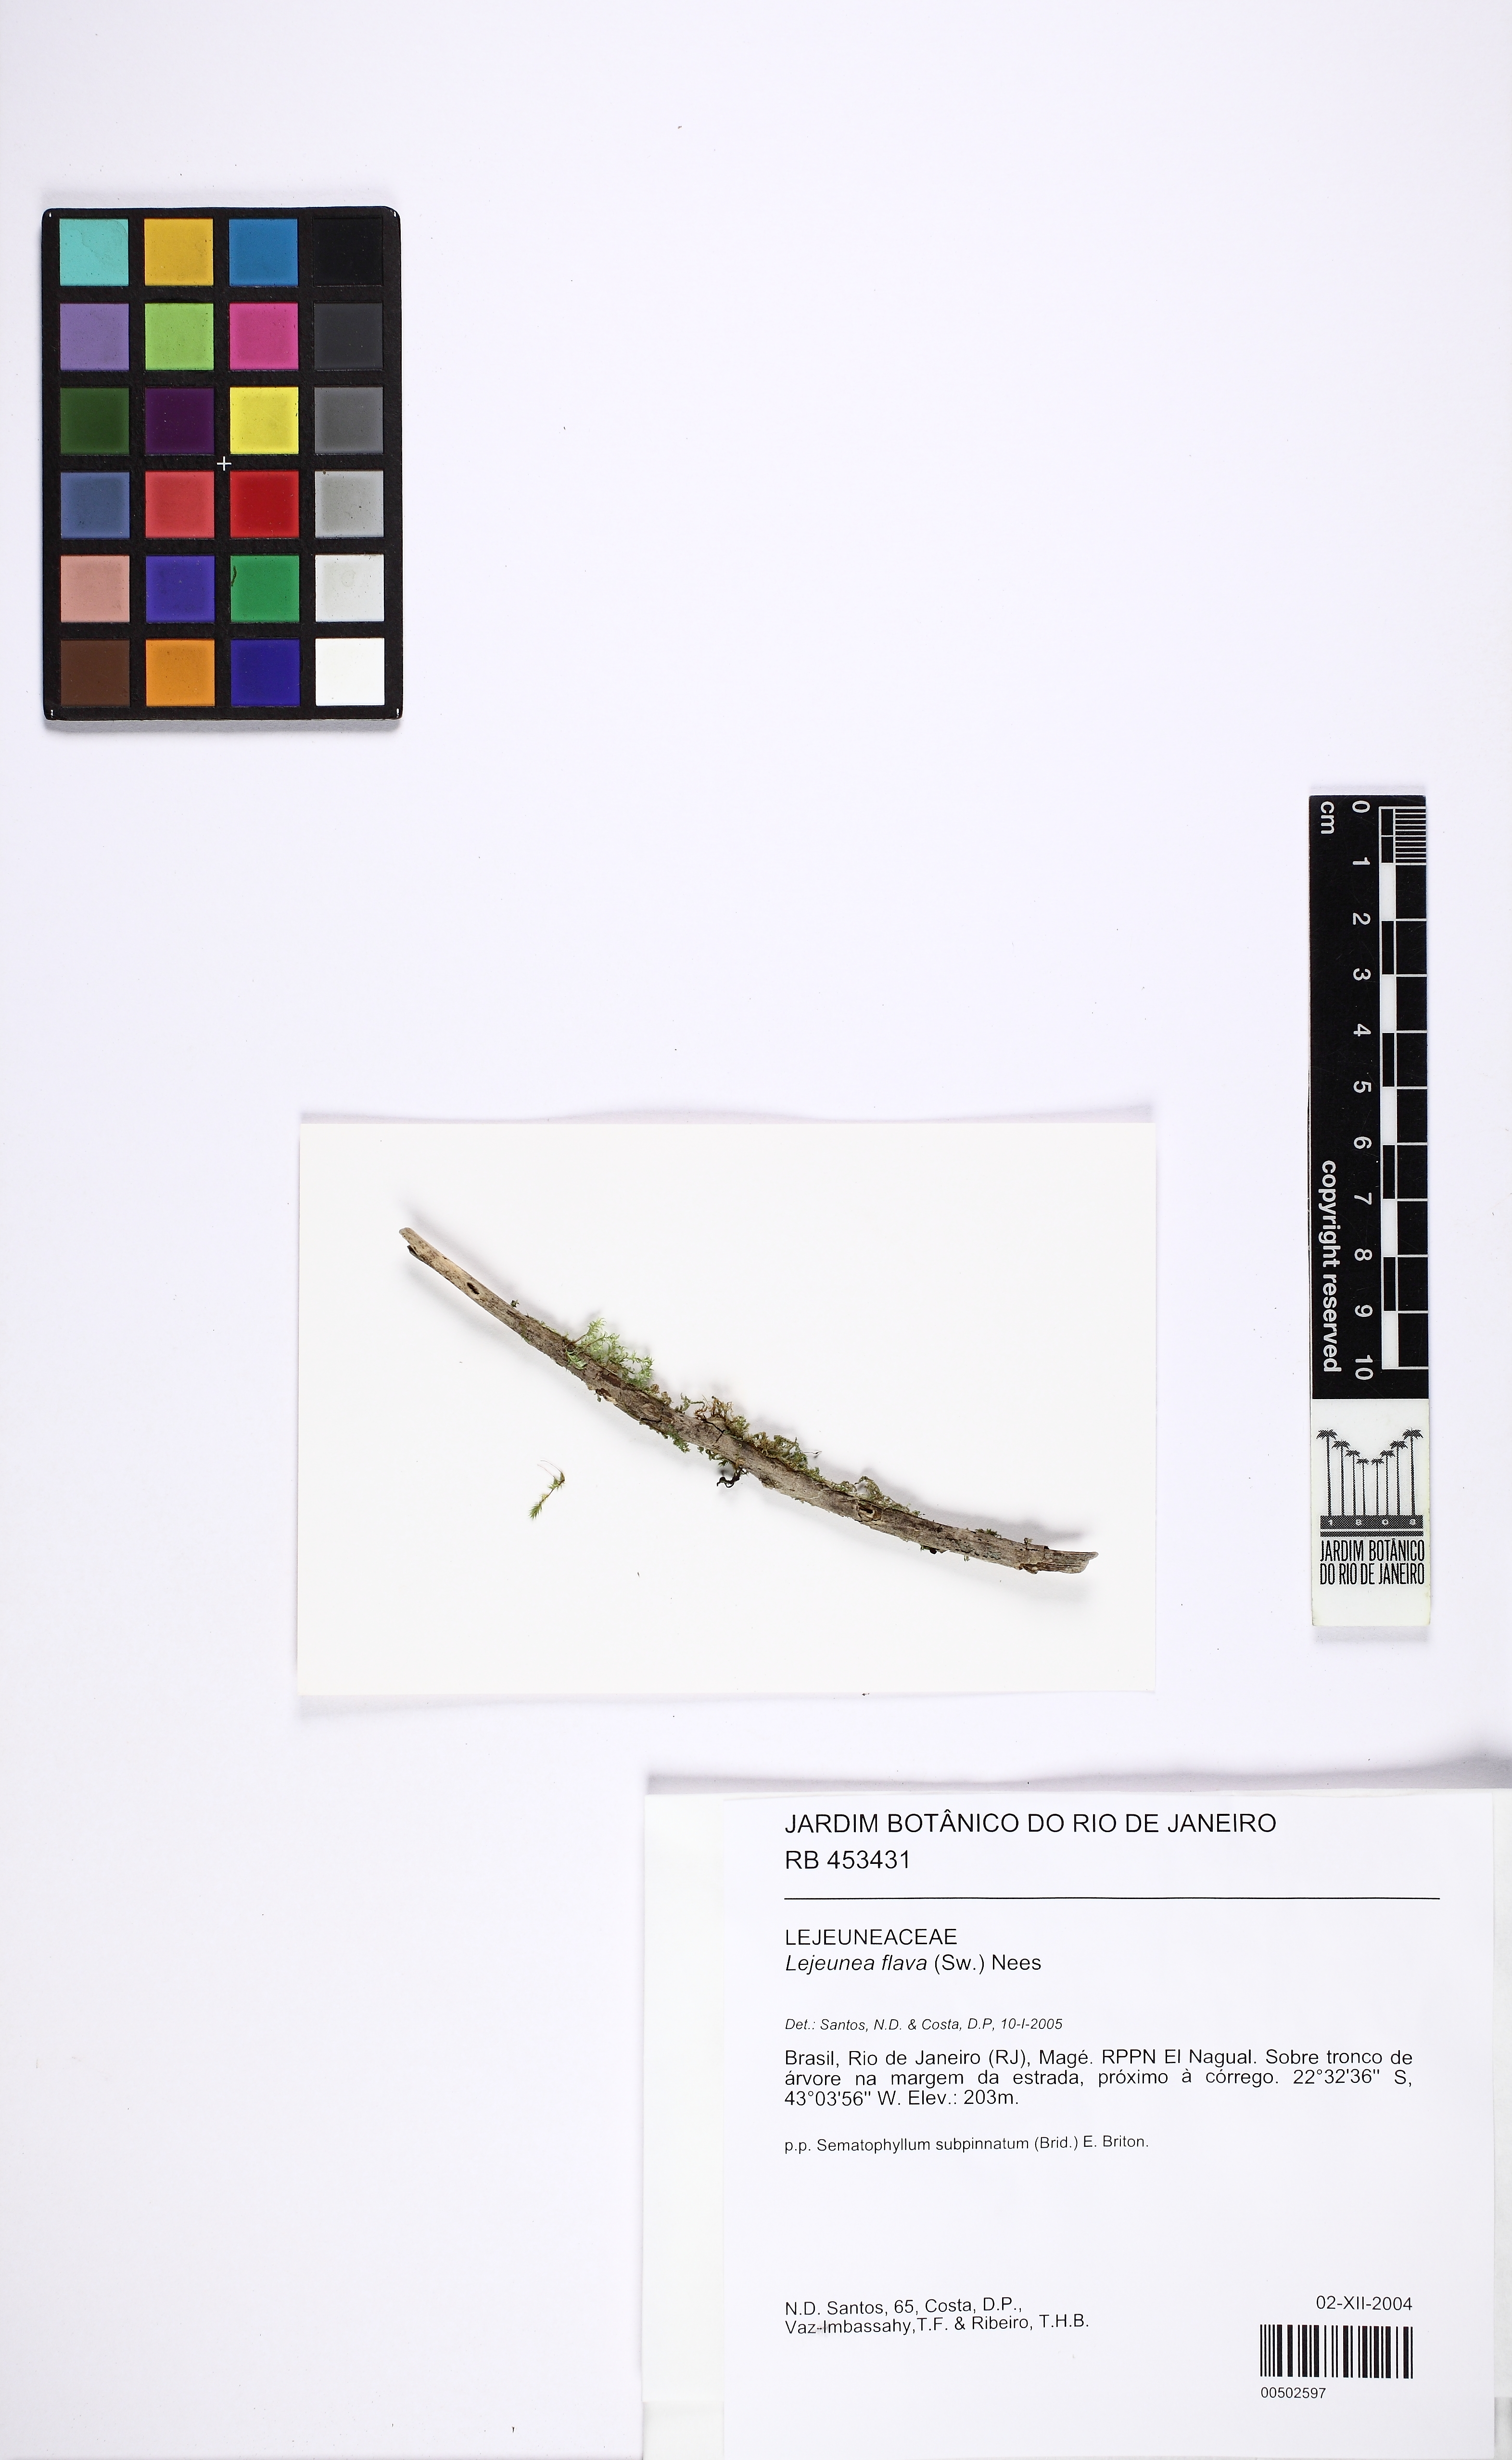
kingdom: Plantae
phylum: Marchantiophyta
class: Jungermanniopsida
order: Porellales
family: Lejeuneaceae
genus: Lejeunea
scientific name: Lejeunea flava
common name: Yellow pouncewort
